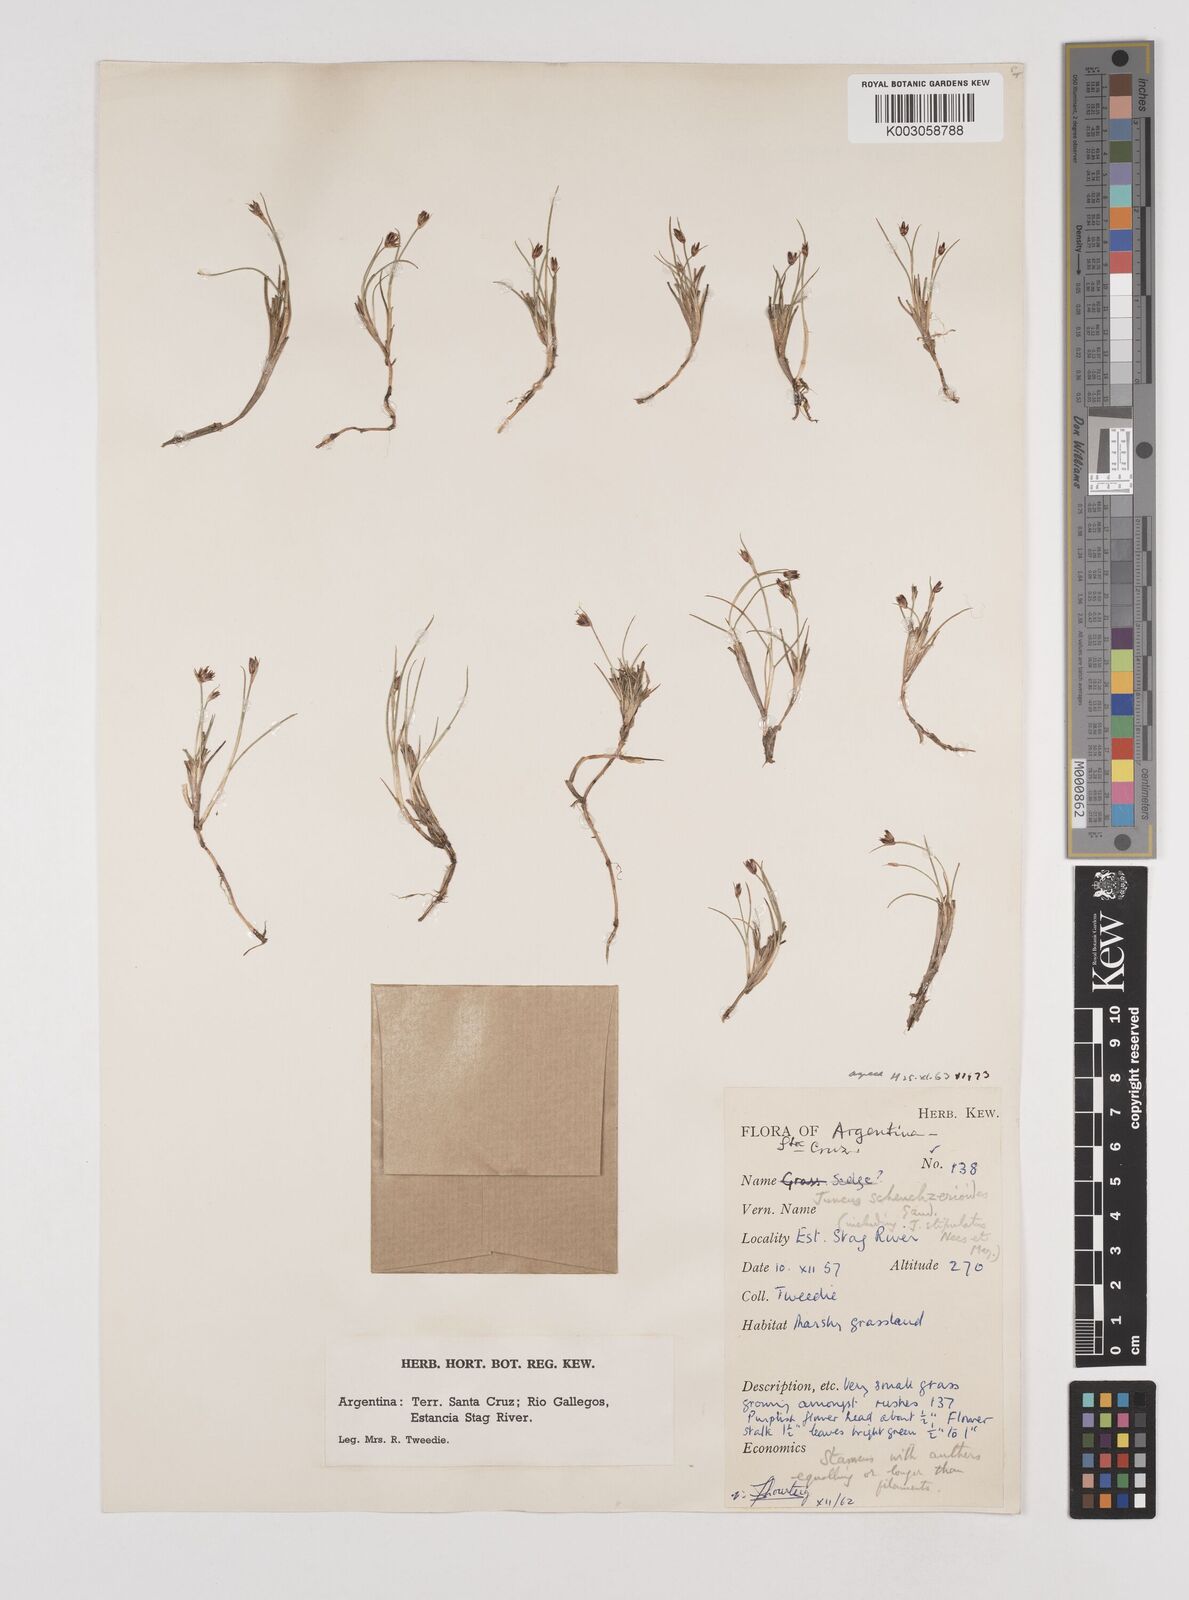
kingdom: Plantae
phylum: Tracheophyta
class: Liliopsida
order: Poales
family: Juncaceae
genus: Juncus
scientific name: Juncus scheuchzerioides
